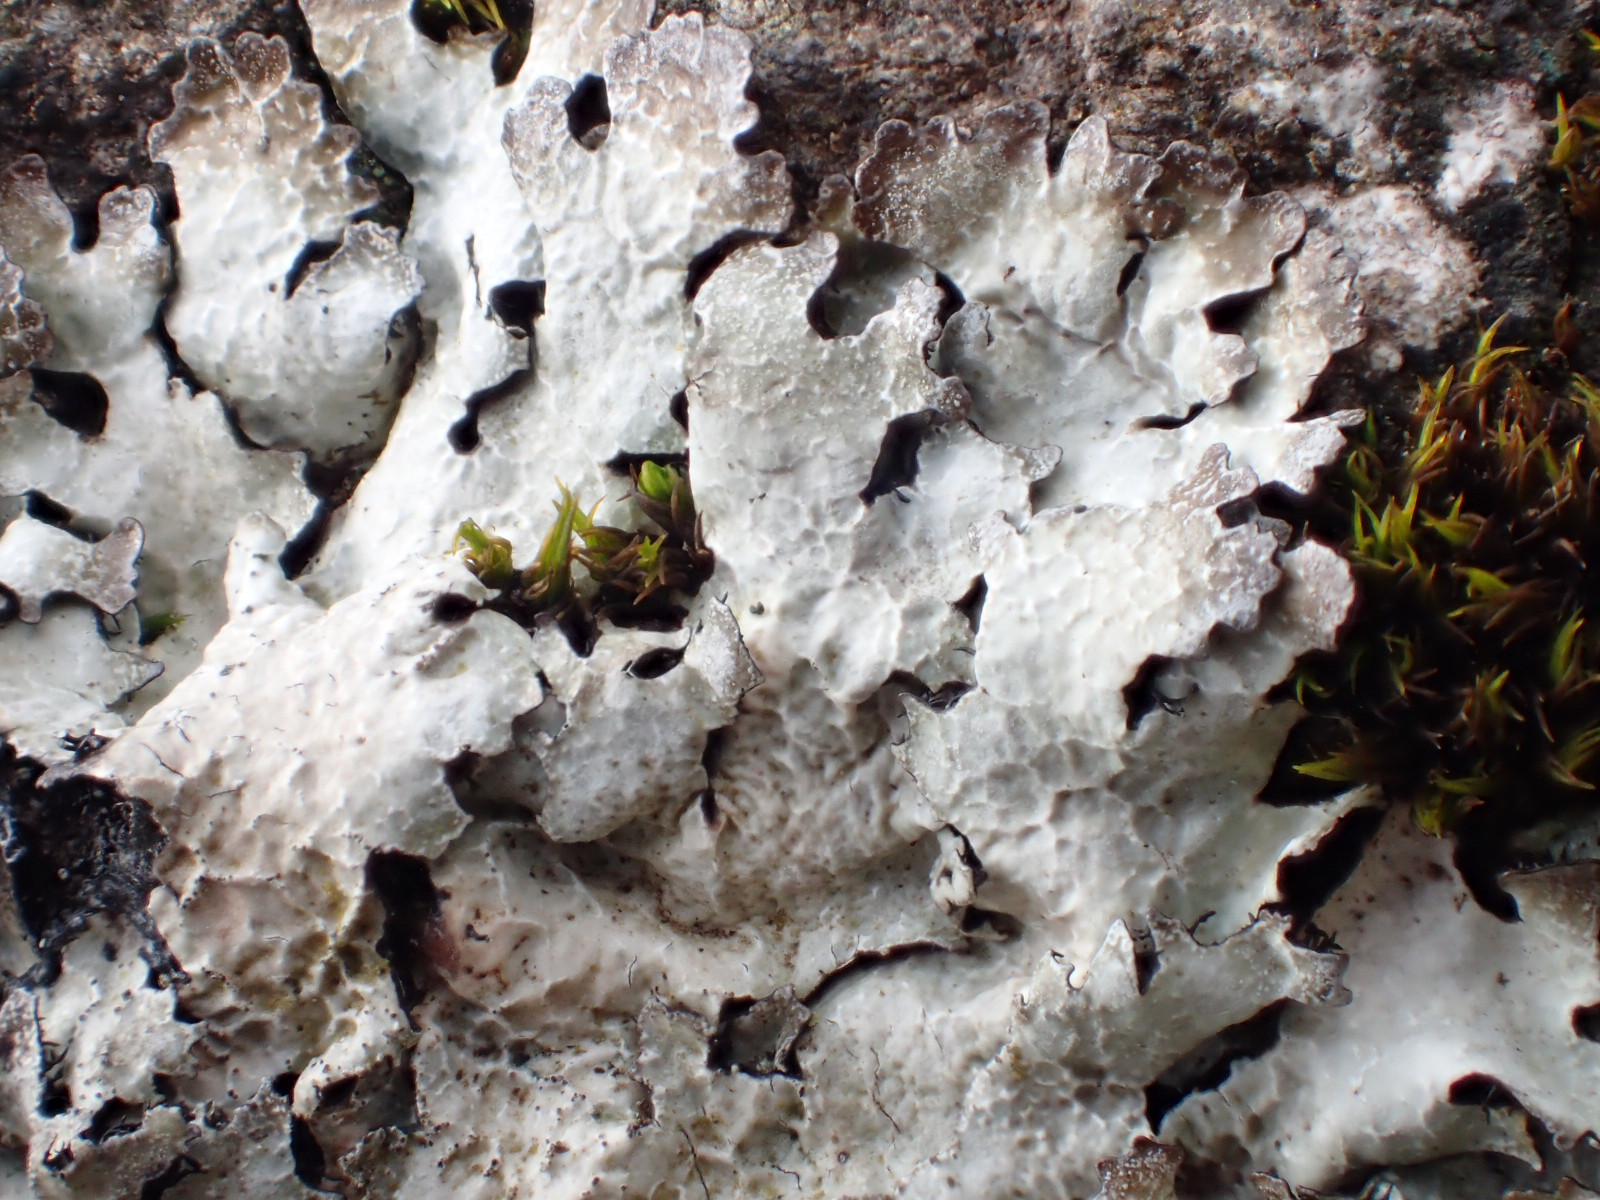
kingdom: Fungi
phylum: Ascomycota
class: Lecanoromycetes
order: Lecanorales
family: Parmeliaceae
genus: Parmelia
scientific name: Parmelia saxatilis
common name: farve-skållav
